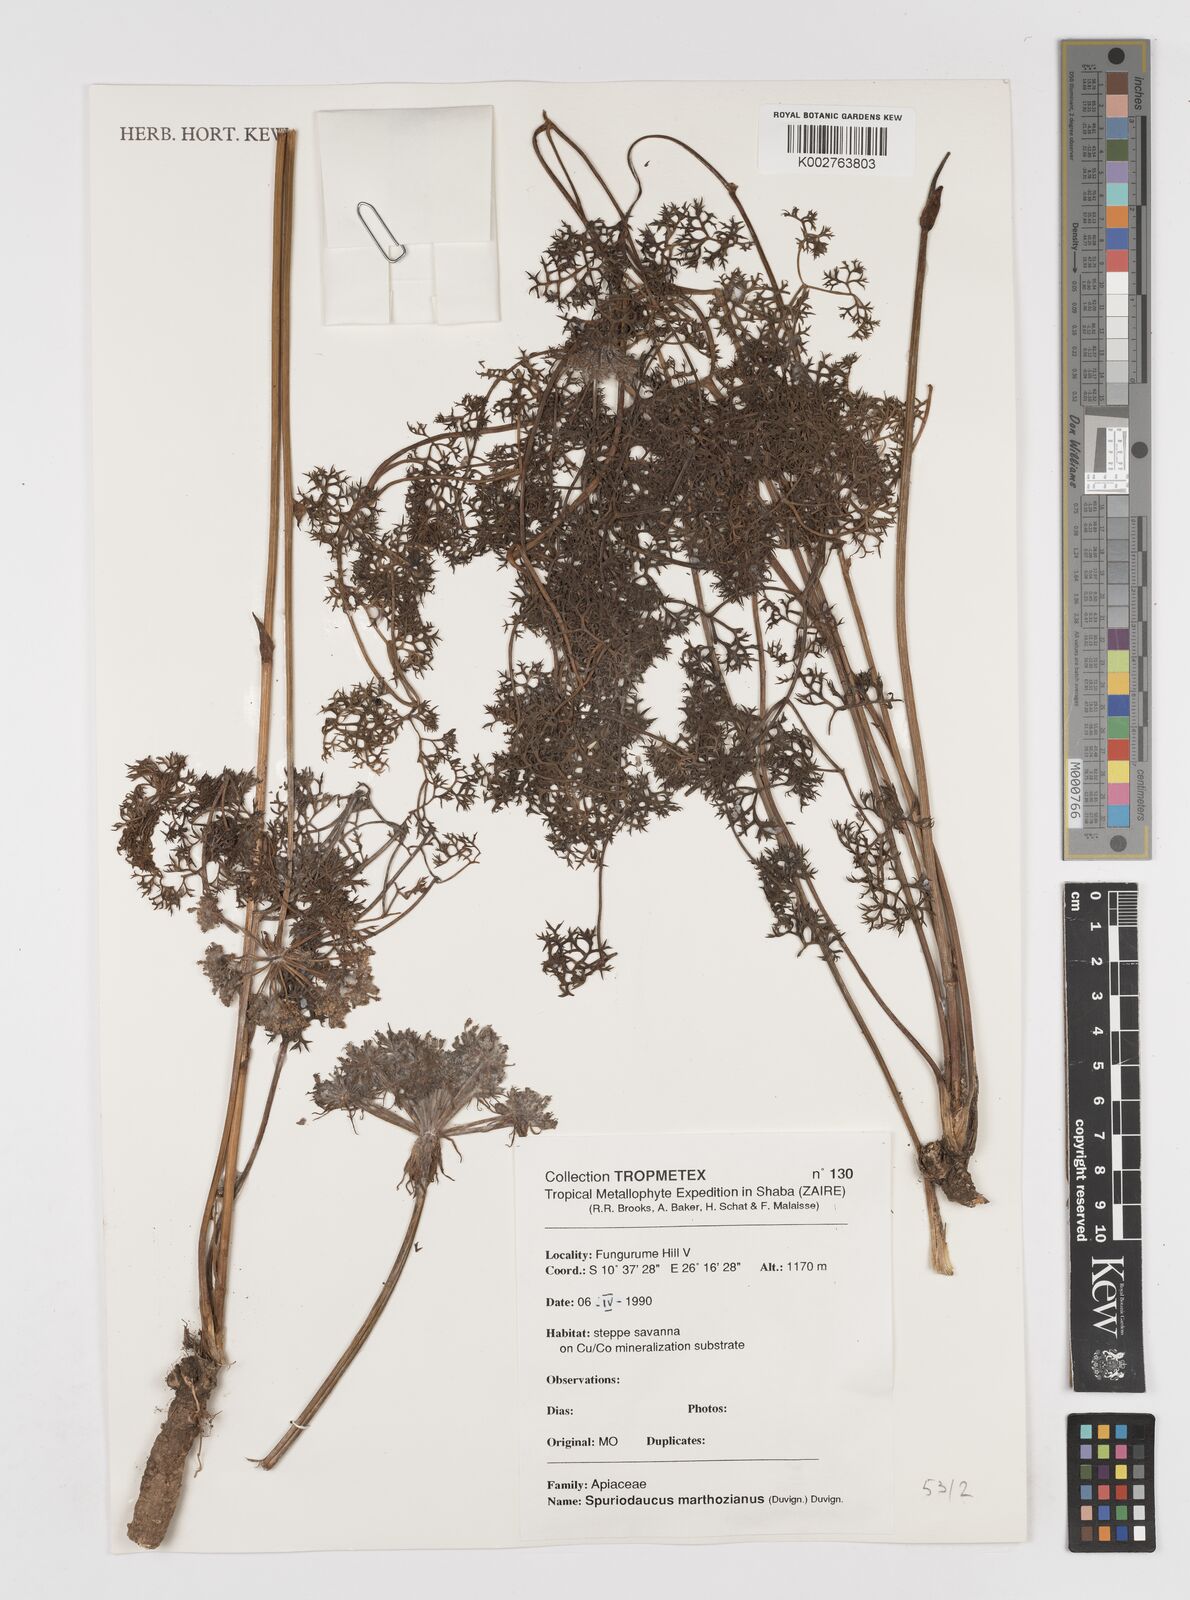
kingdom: Plantae
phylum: Tracheophyta
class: Magnoliopsida
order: Apiales
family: Apiaceae
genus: Physotrichia
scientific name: Physotrichia atropurpurea
